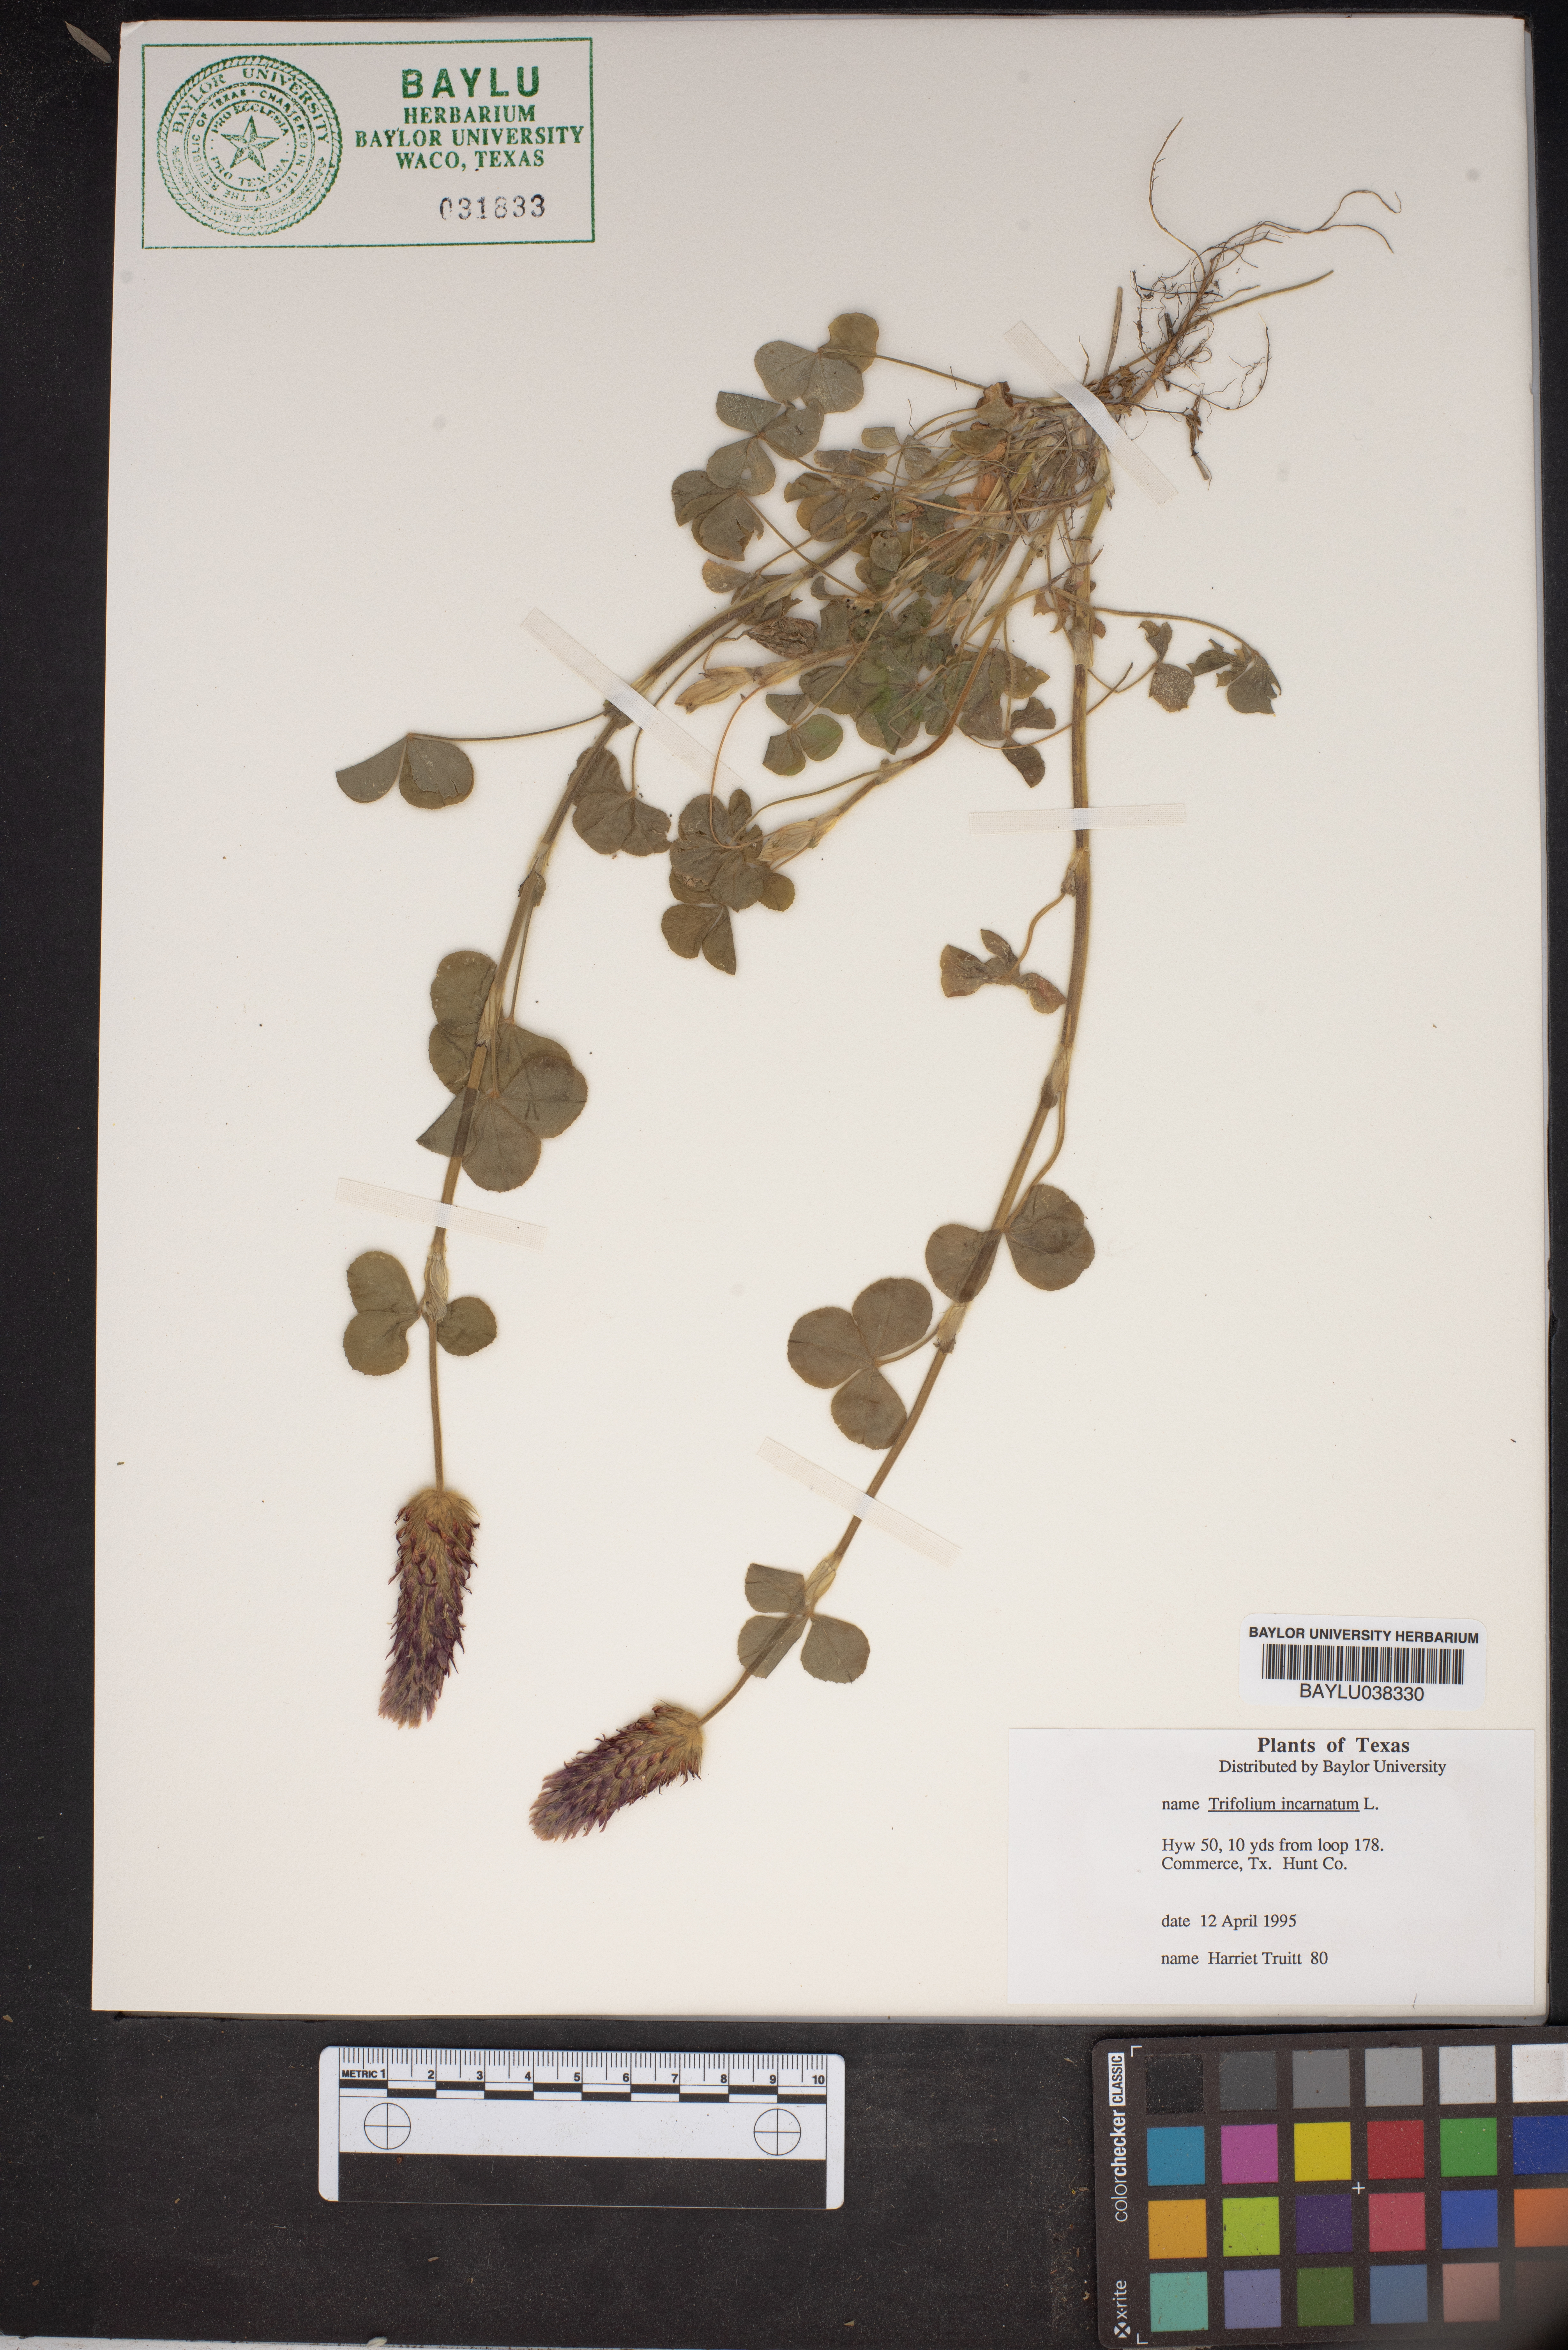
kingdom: Plantae
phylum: Tracheophyta
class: Magnoliopsida
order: Fabales
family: Fabaceae
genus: Trifolium
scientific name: Trifolium incarnatum
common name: Crimson clover
